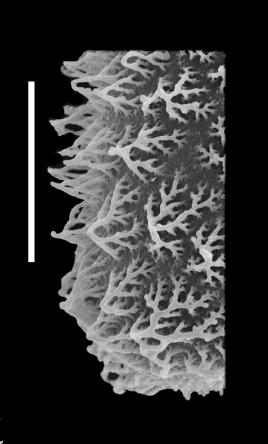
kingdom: Protozoa
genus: Belonechitina
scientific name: Belonechitina robusta
